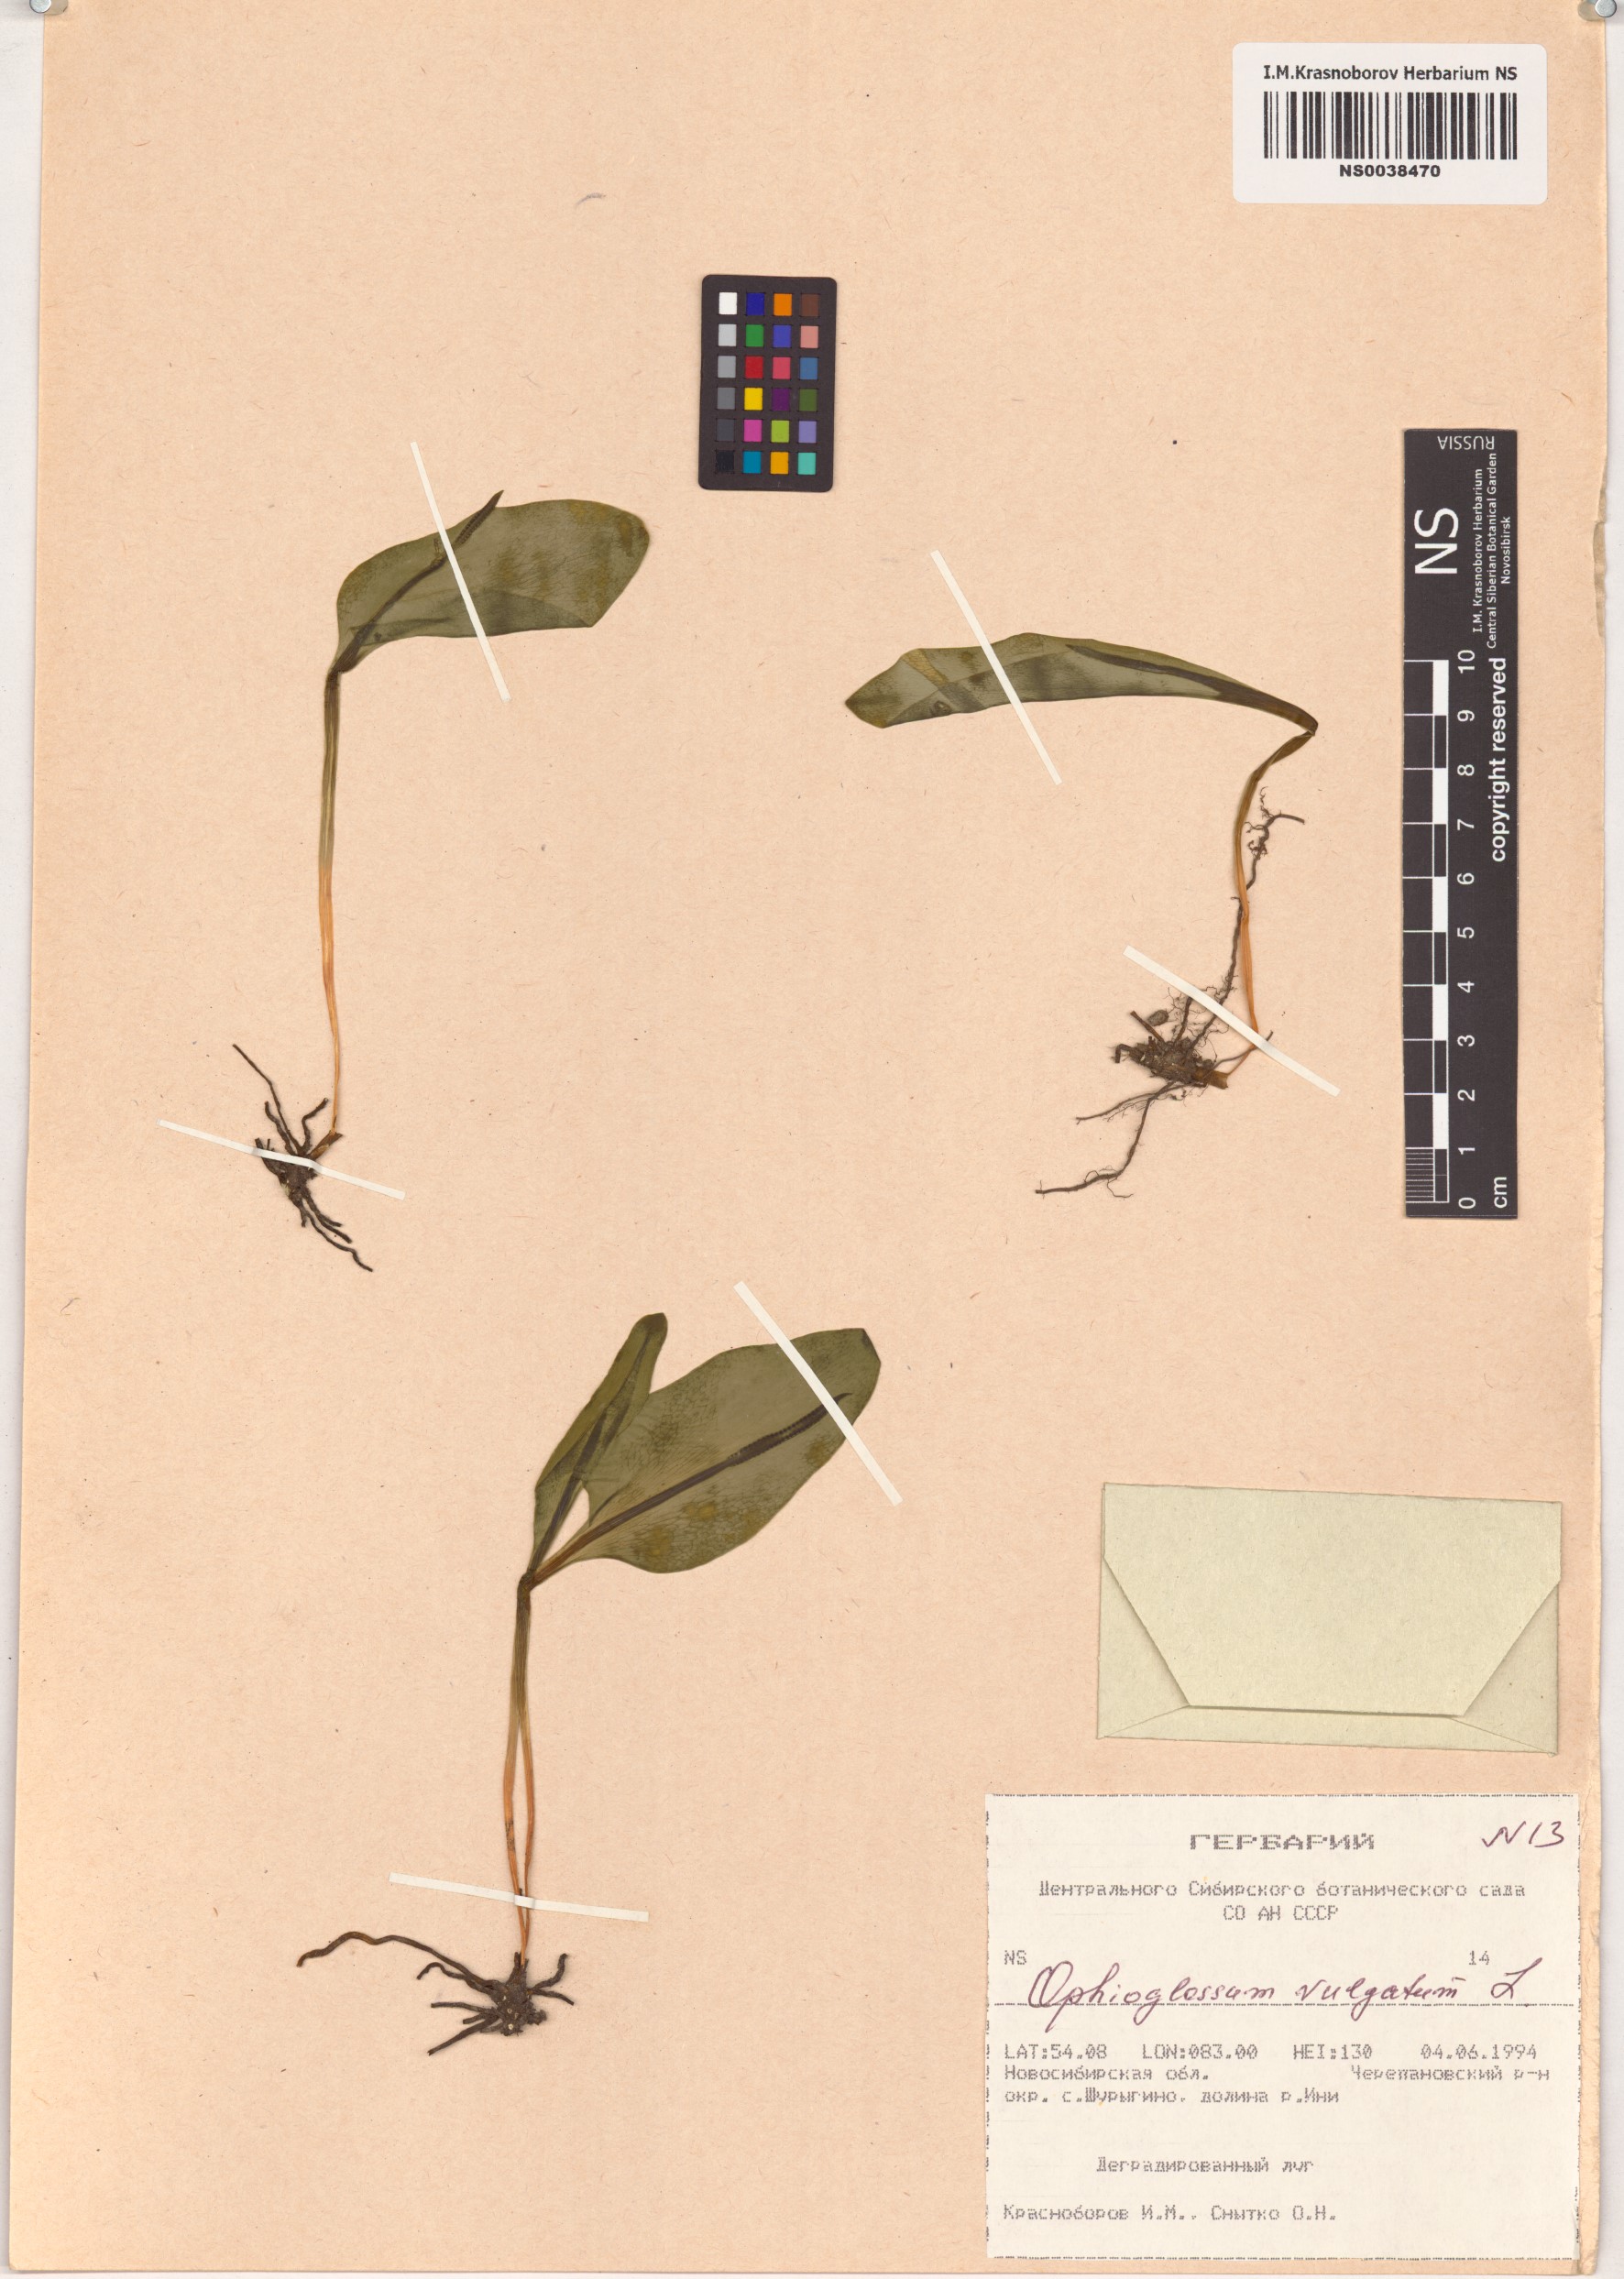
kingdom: Plantae
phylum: Tracheophyta
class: Polypodiopsida
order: Ophioglossales
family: Ophioglossaceae
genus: Ophioglossum
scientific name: Ophioglossum vulgatum
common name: Adder's-tongue
